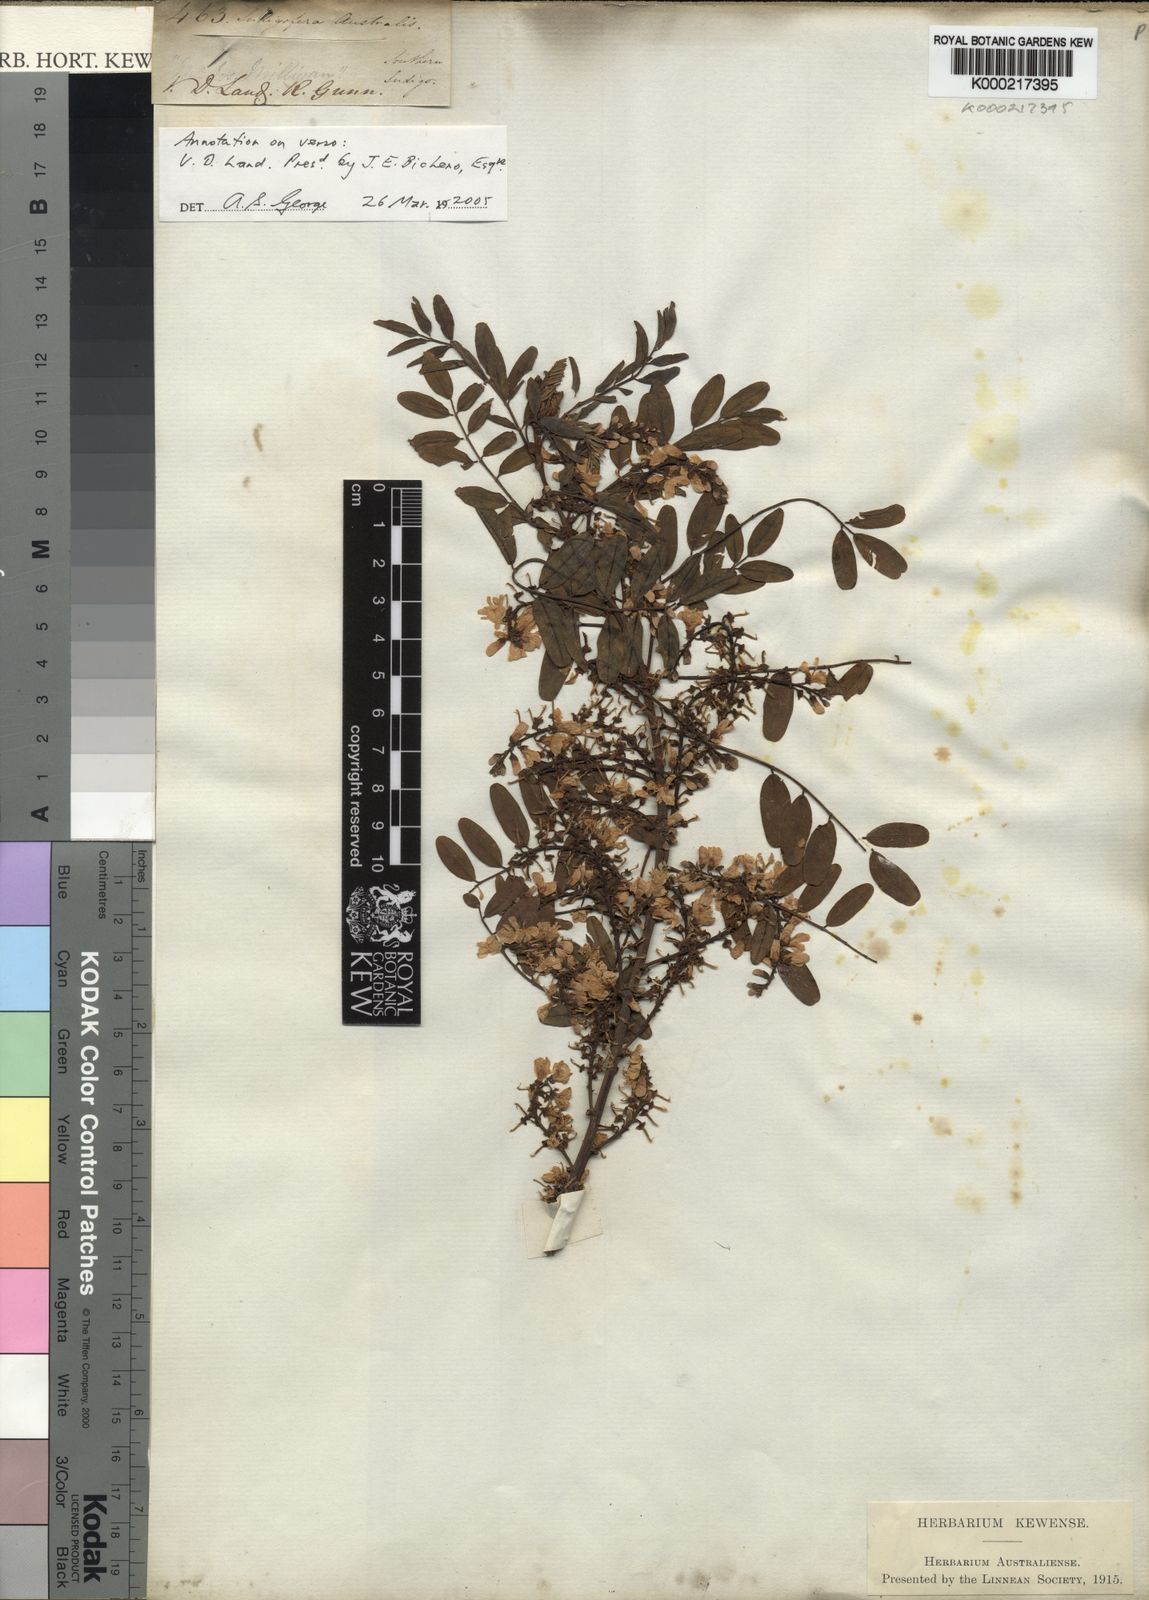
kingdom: Plantae
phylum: Tracheophyta
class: Magnoliopsida
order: Fabales
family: Fabaceae
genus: Indigofera
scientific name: Indigofera australis
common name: Australian indigo
